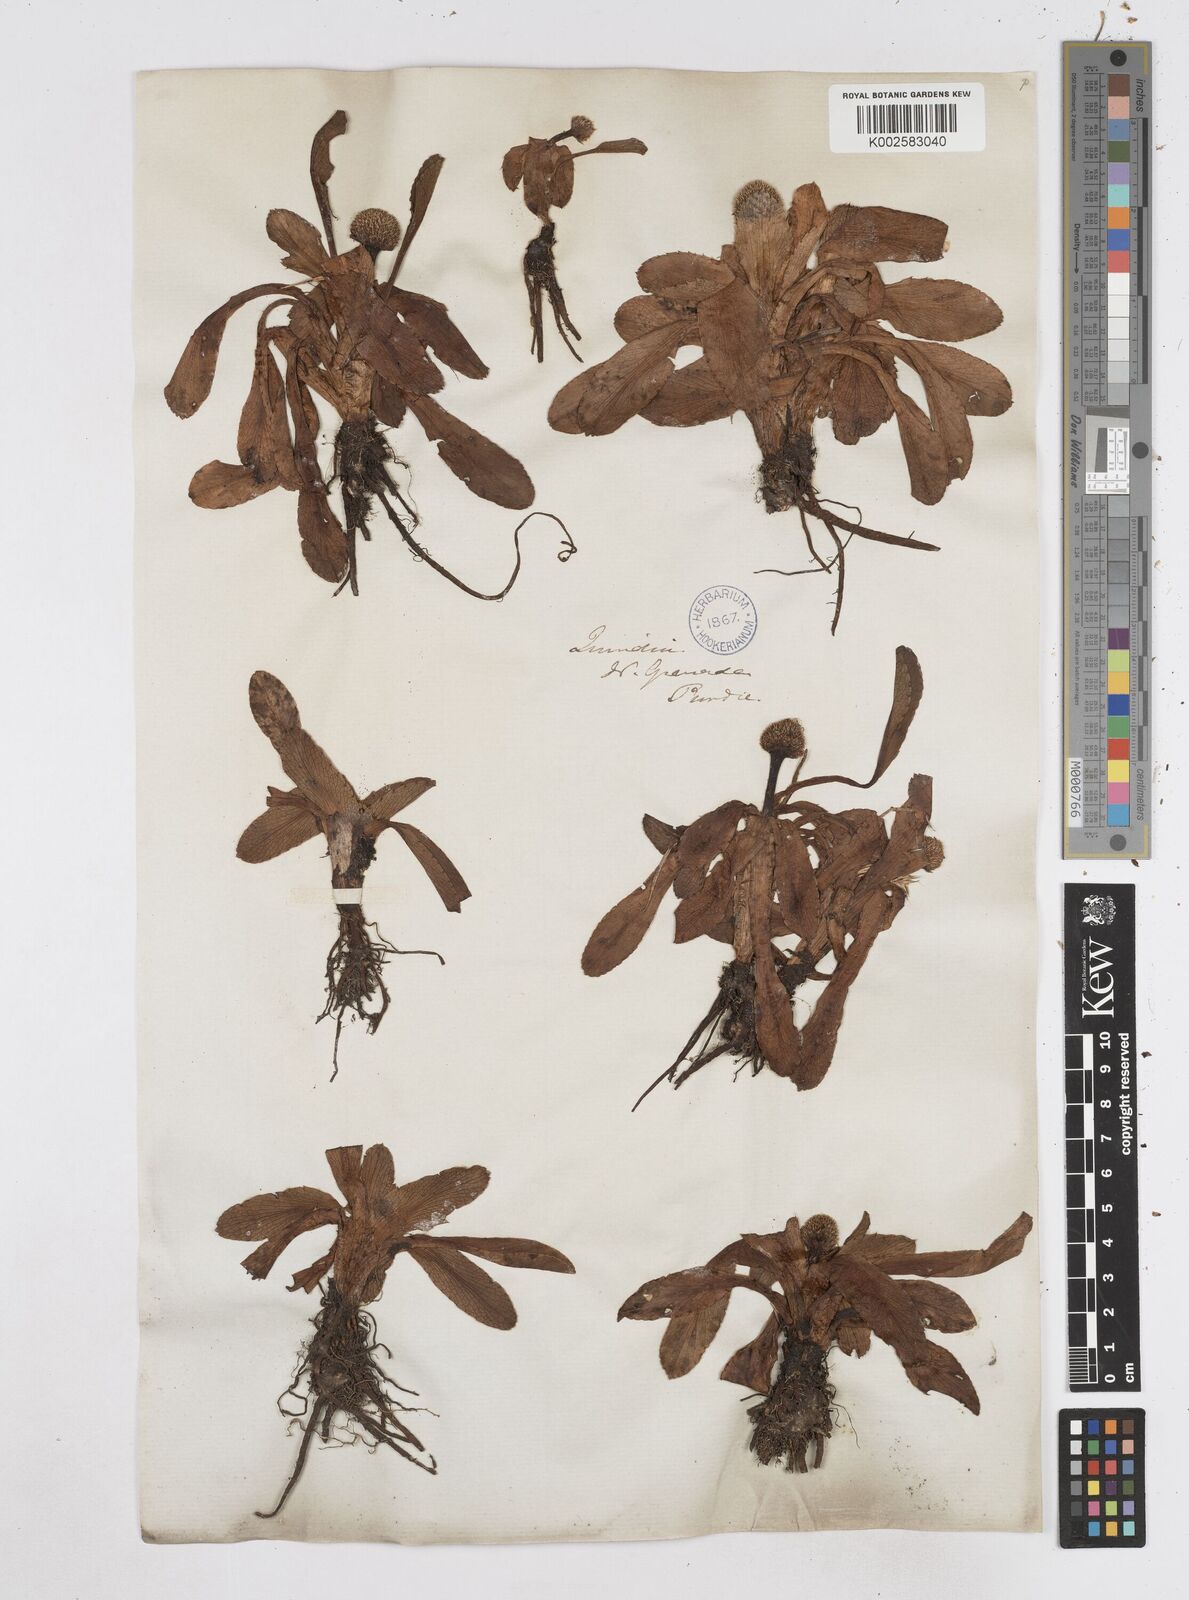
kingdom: Plantae
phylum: Tracheophyta
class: Magnoliopsida
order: Apiales
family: Apiaceae
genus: Eryngium
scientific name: Eryngium humile
